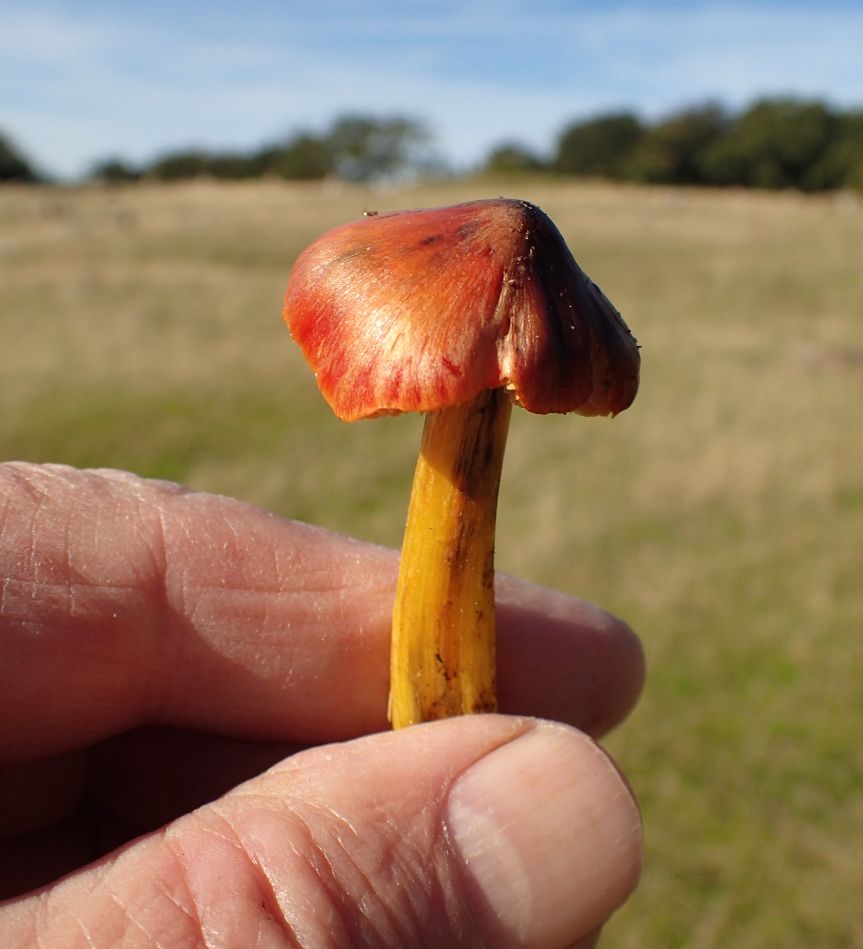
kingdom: Fungi
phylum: Basidiomycota
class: Agaricomycetes
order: Agaricales
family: Hygrophoraceae
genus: Hygrocybe
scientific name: Hygrocybe conica
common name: kegle-vokshat
